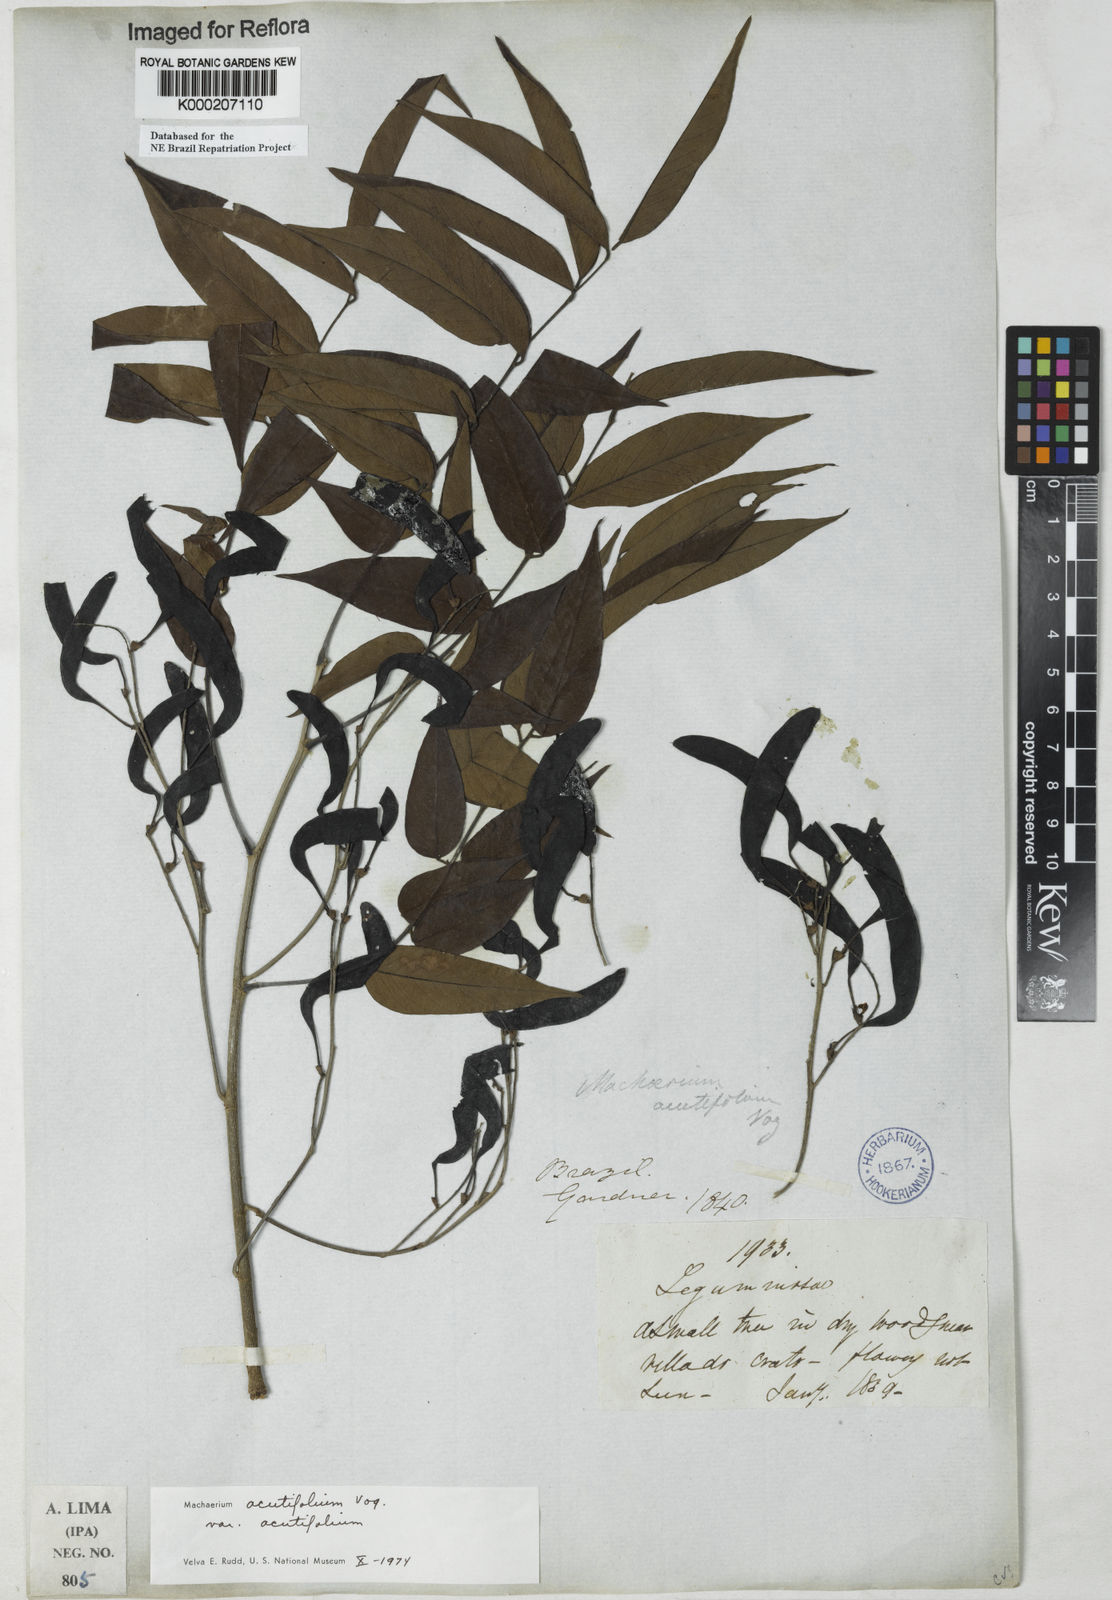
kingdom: Plantae
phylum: Tracheophyta
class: Magnoliopsida
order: Fabales
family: Fabaceae
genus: Machaerium
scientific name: Machaerium acutifolium
